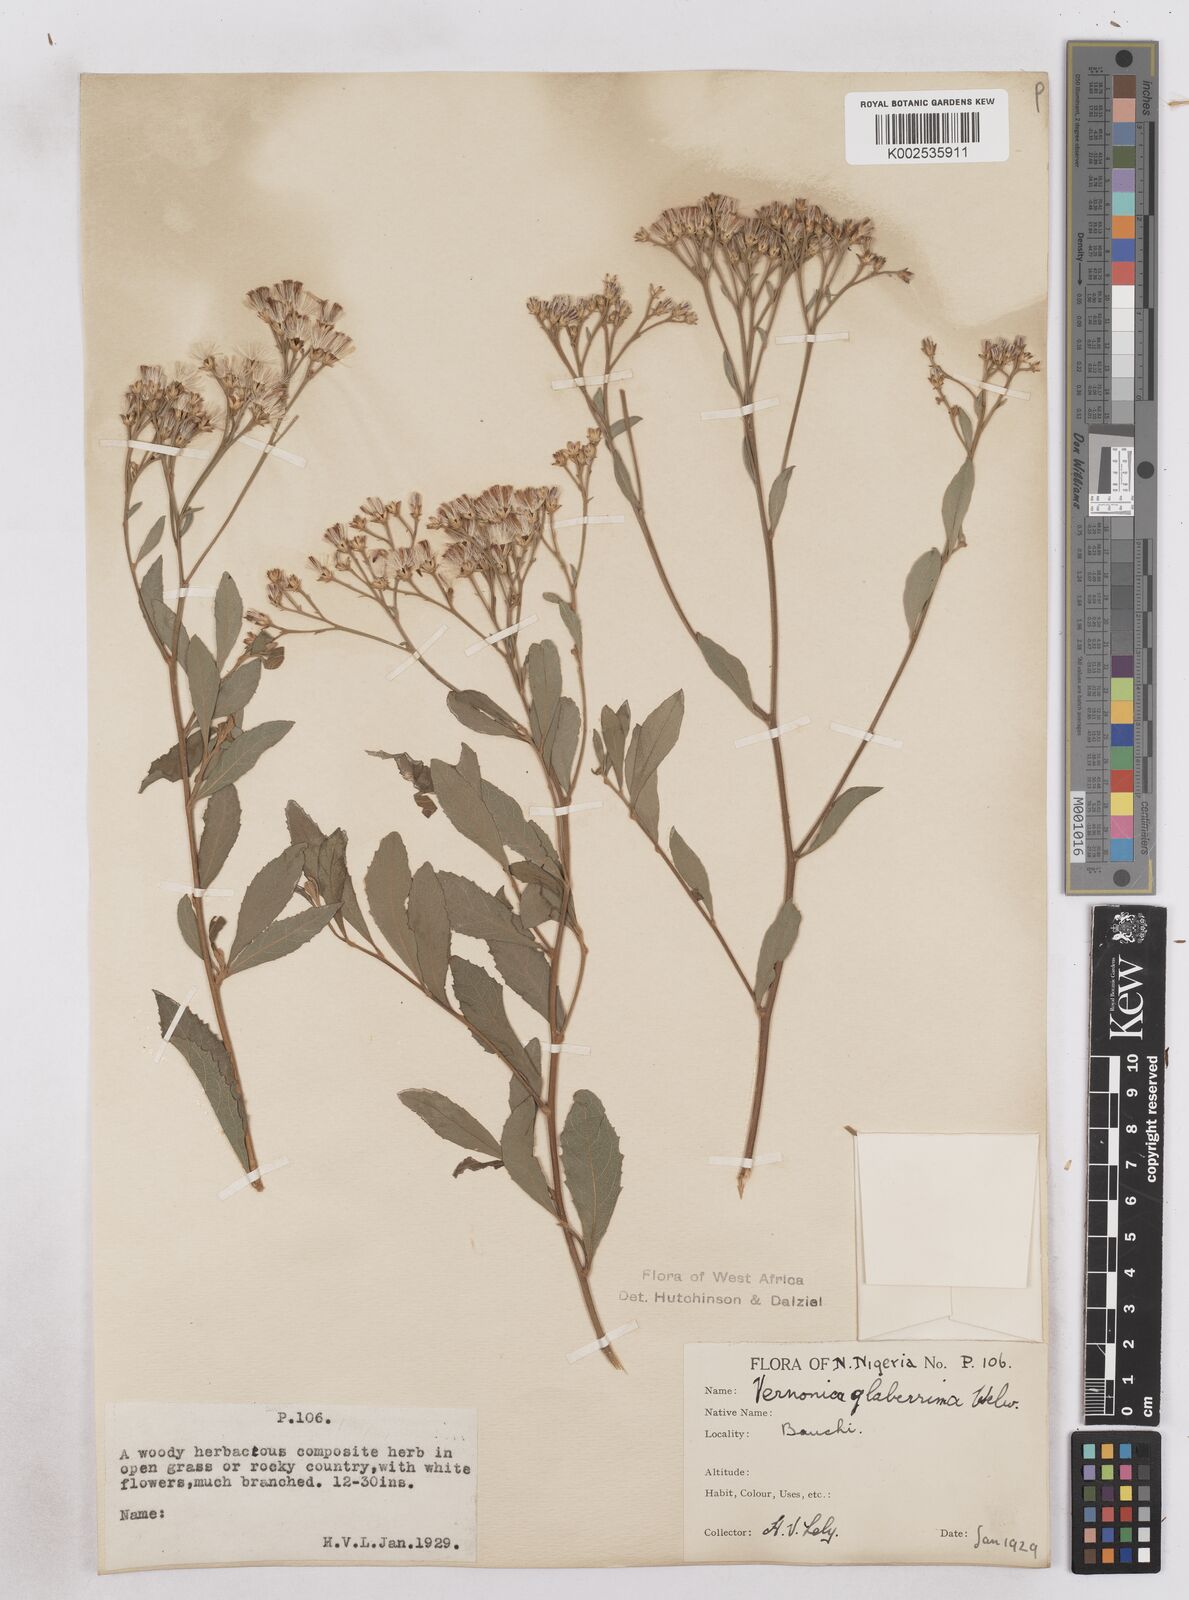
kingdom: Plantae
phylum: Tracheophyta
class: Magnoliopsida
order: Asterales
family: Asteraceae
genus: Gymnanthemum
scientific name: Gymnanthemum glaberrimum
